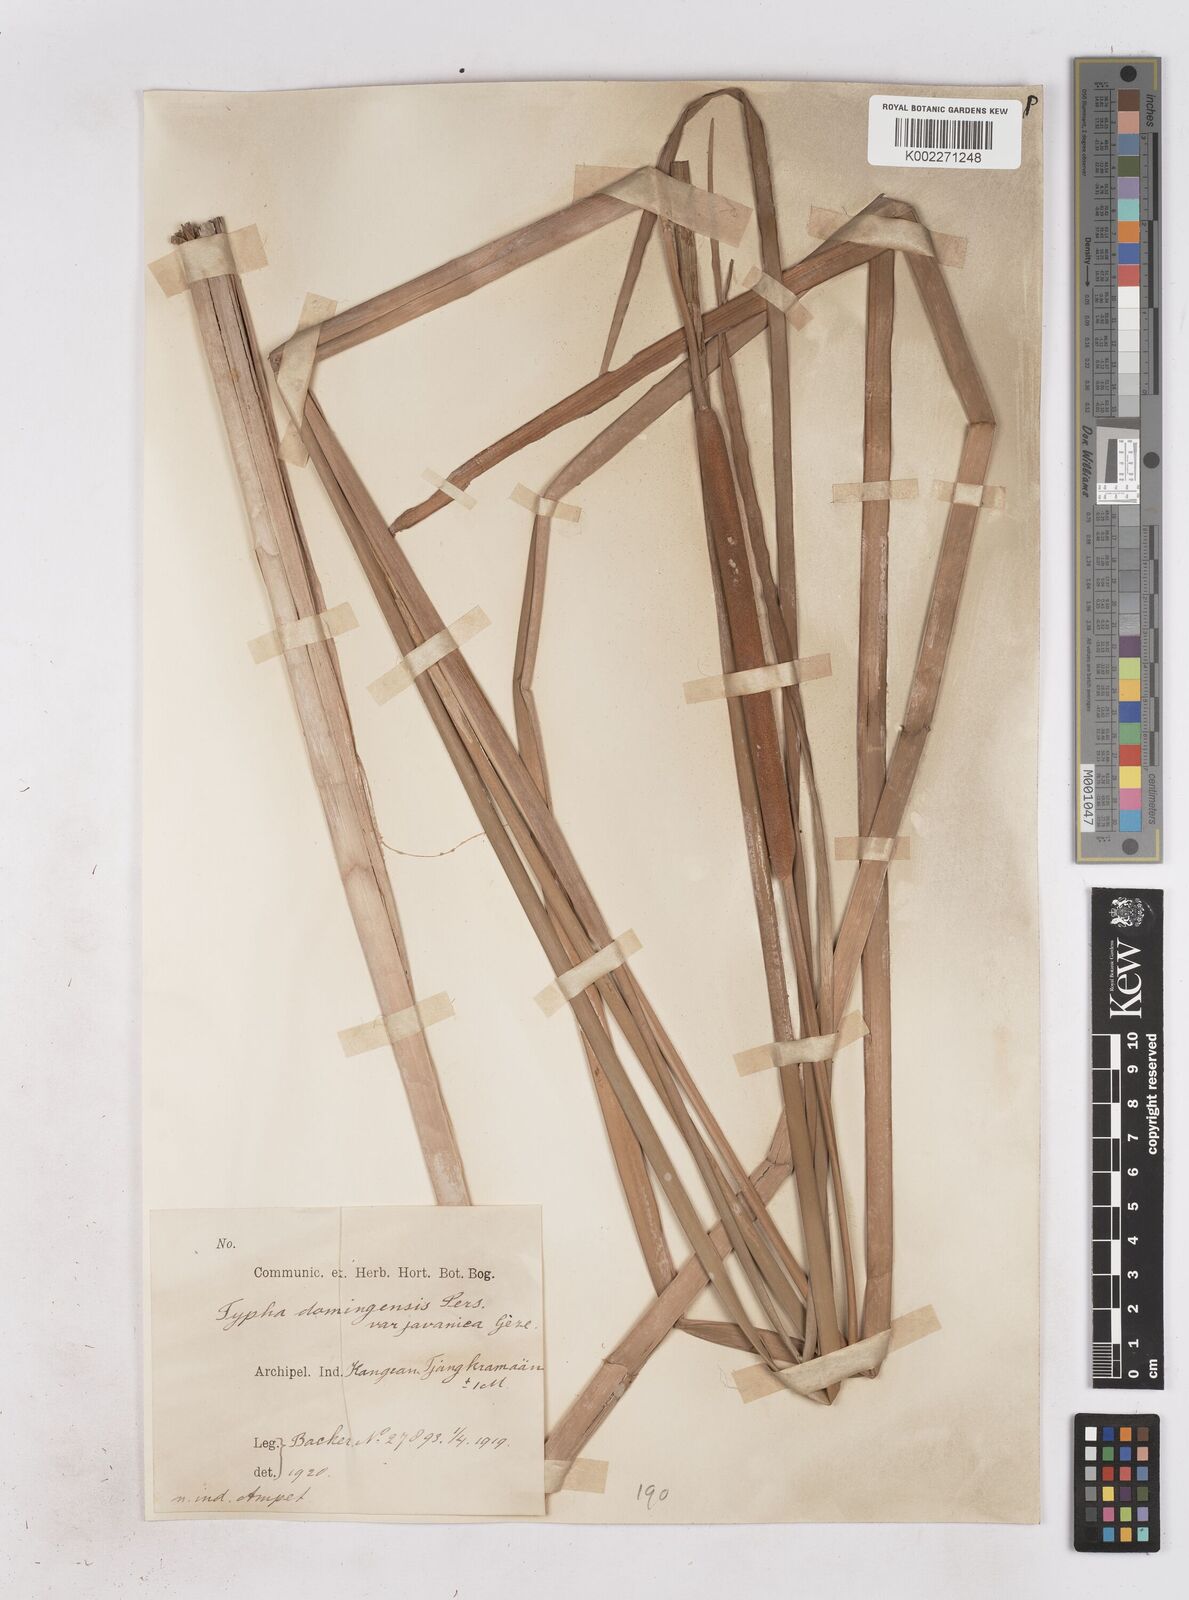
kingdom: Plantae
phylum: Tracheophyta
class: Liliopsida
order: Poales
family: Typhaceae
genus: Typha
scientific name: Typha domingensis
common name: Southern cattail
